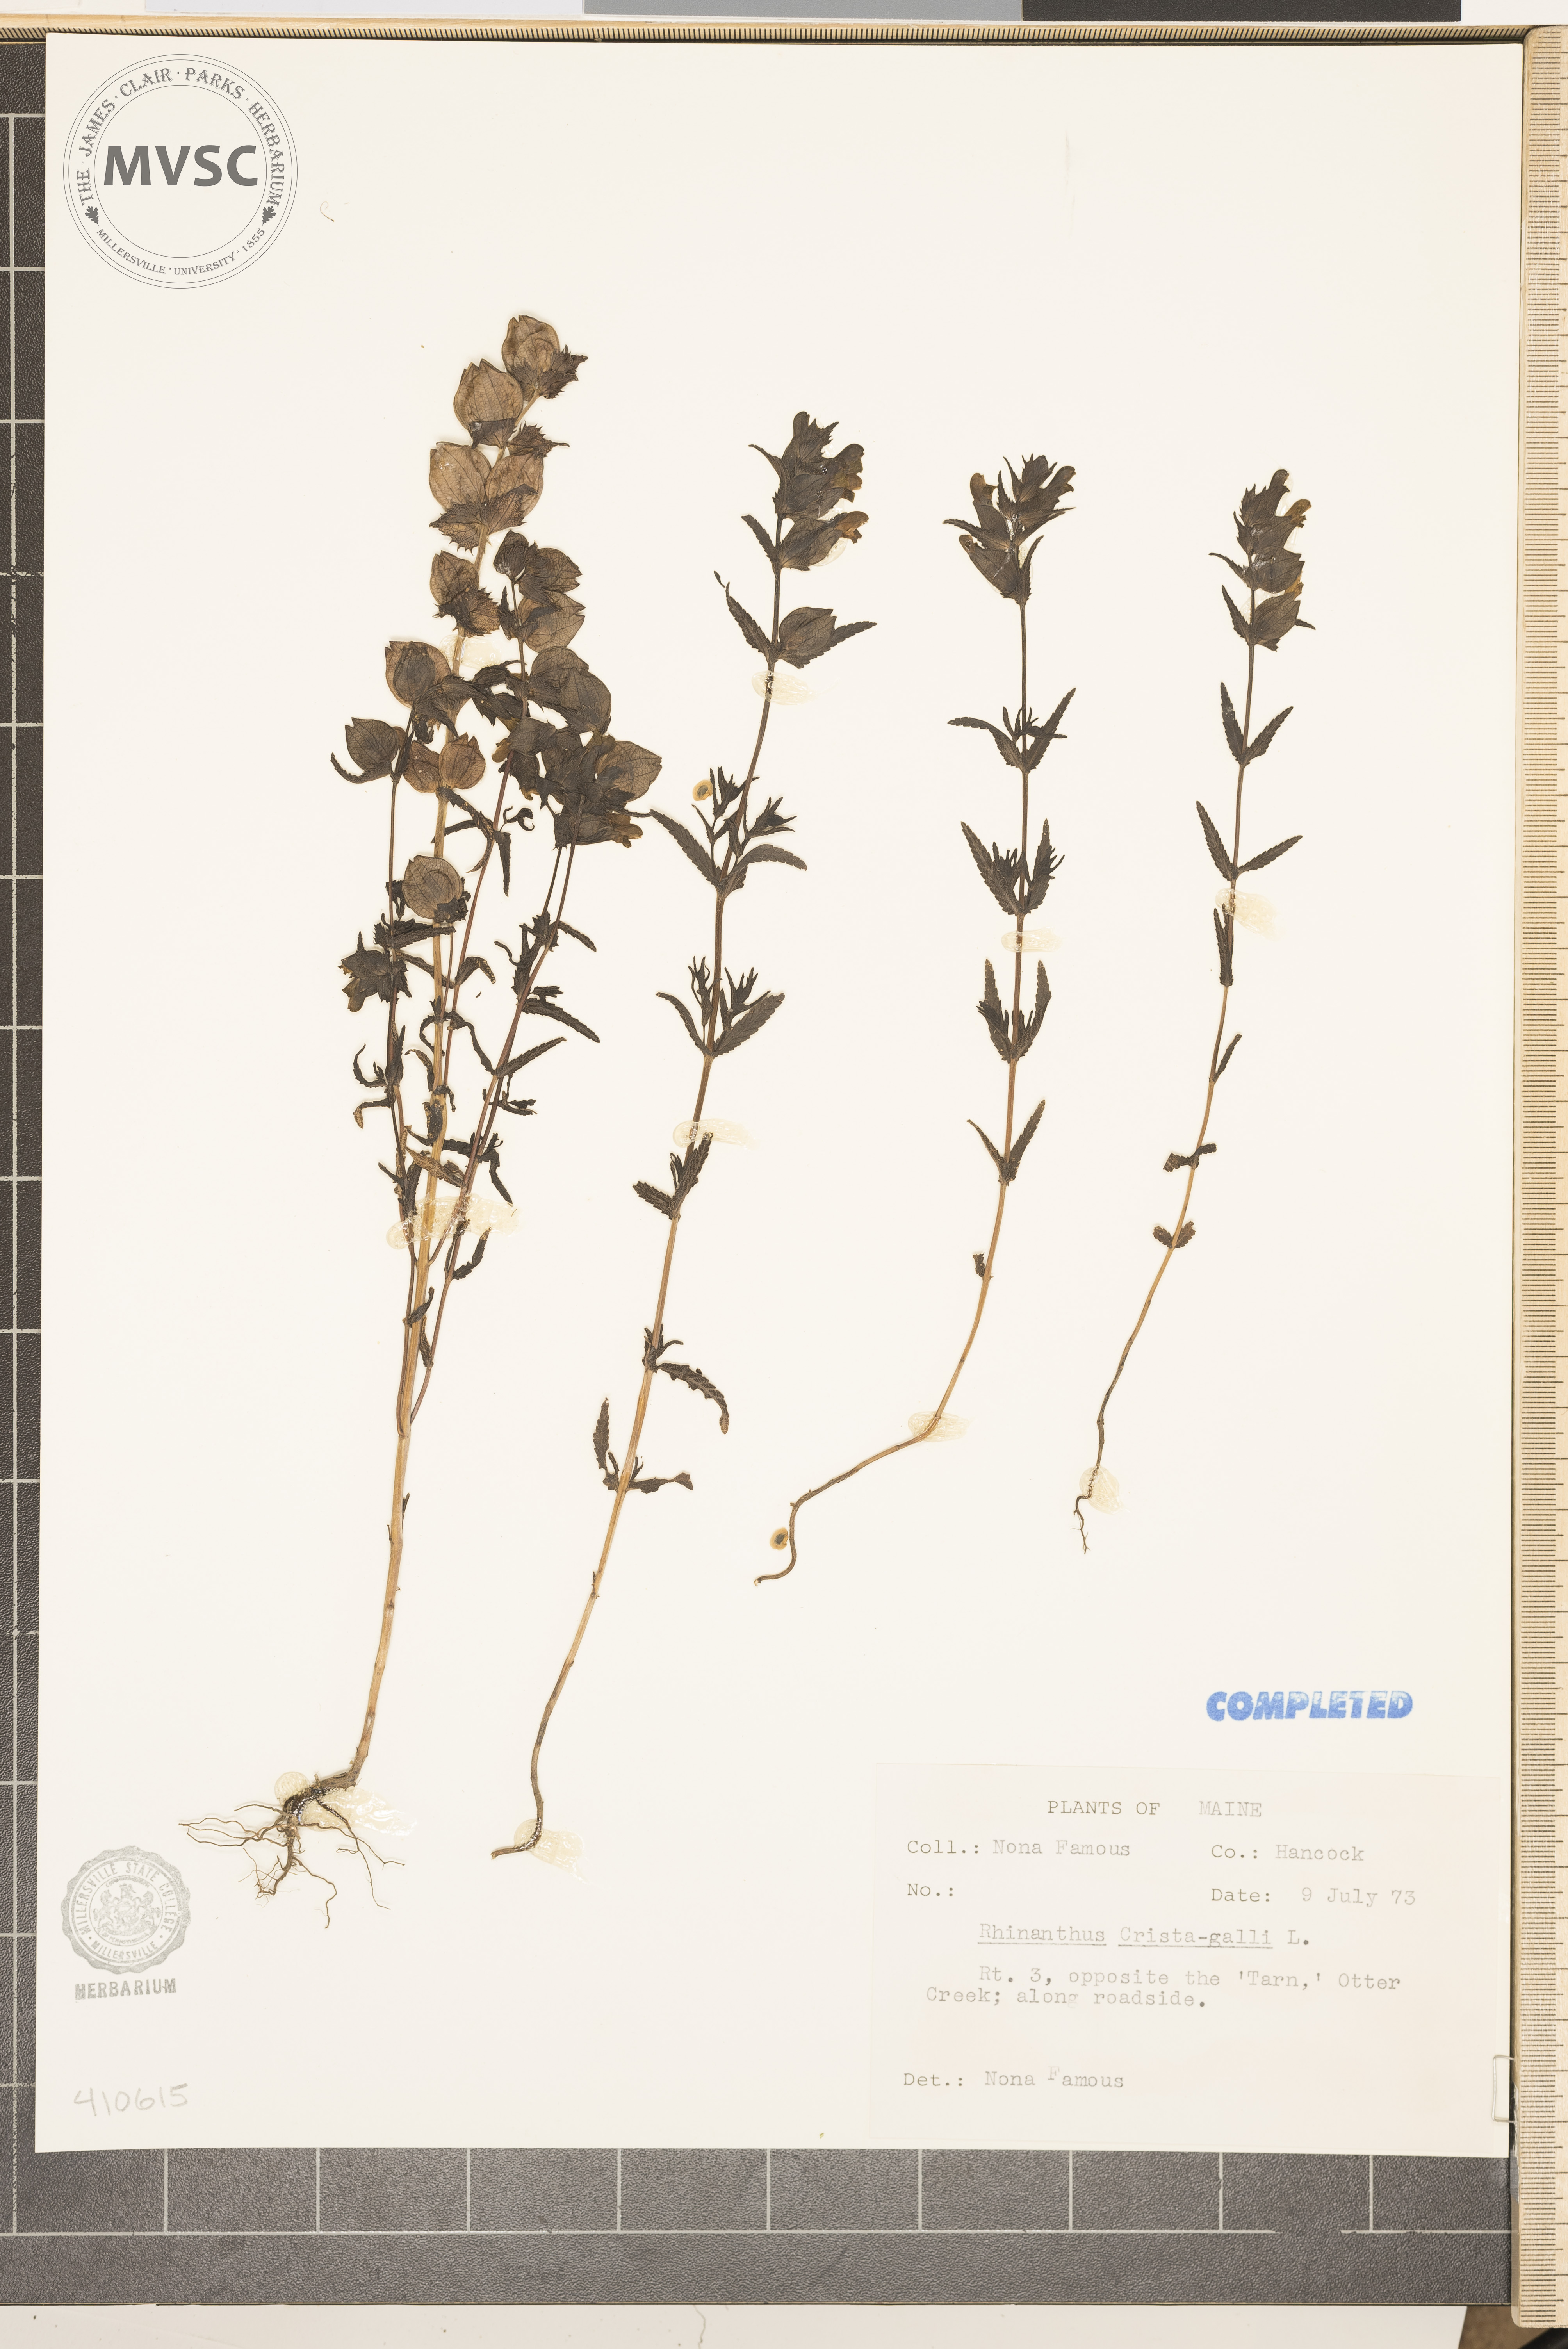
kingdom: Plantae
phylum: Tracheophyta
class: Magnoliopsida
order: Lamiales
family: Orobanchaceae
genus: Rhinanthus
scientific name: Rhinanthus
